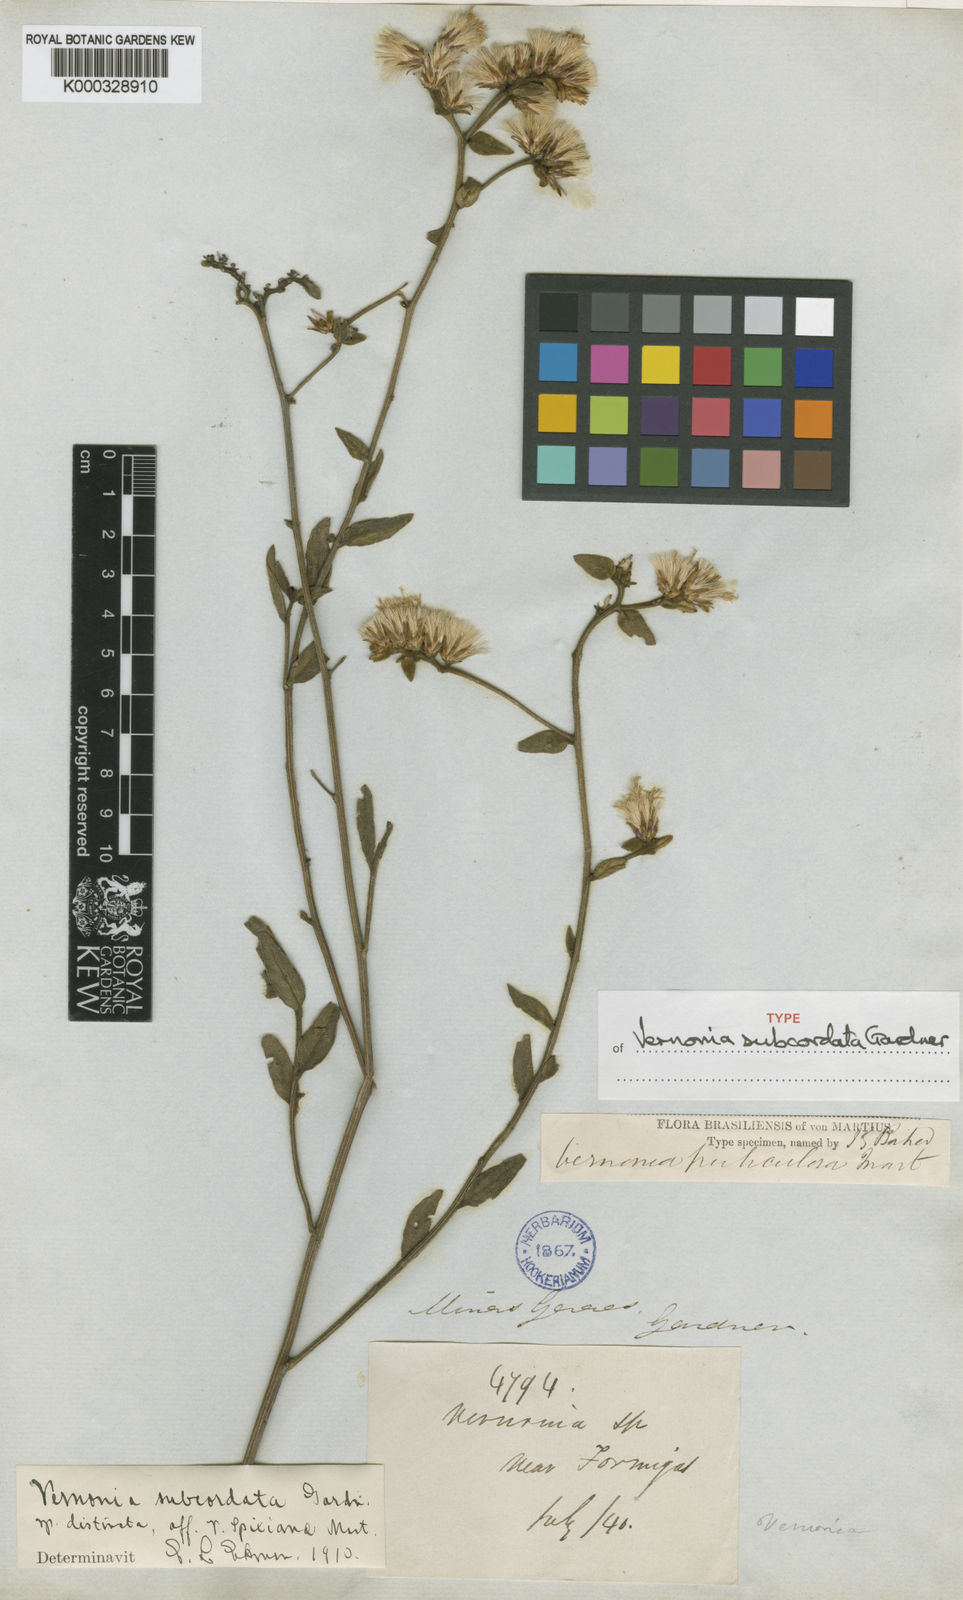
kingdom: Plantae
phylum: Tracheophyta
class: Magnoliopsida
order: Asterales
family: Asteraceae
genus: Lepidaploa
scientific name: Lepidaploa helophila
